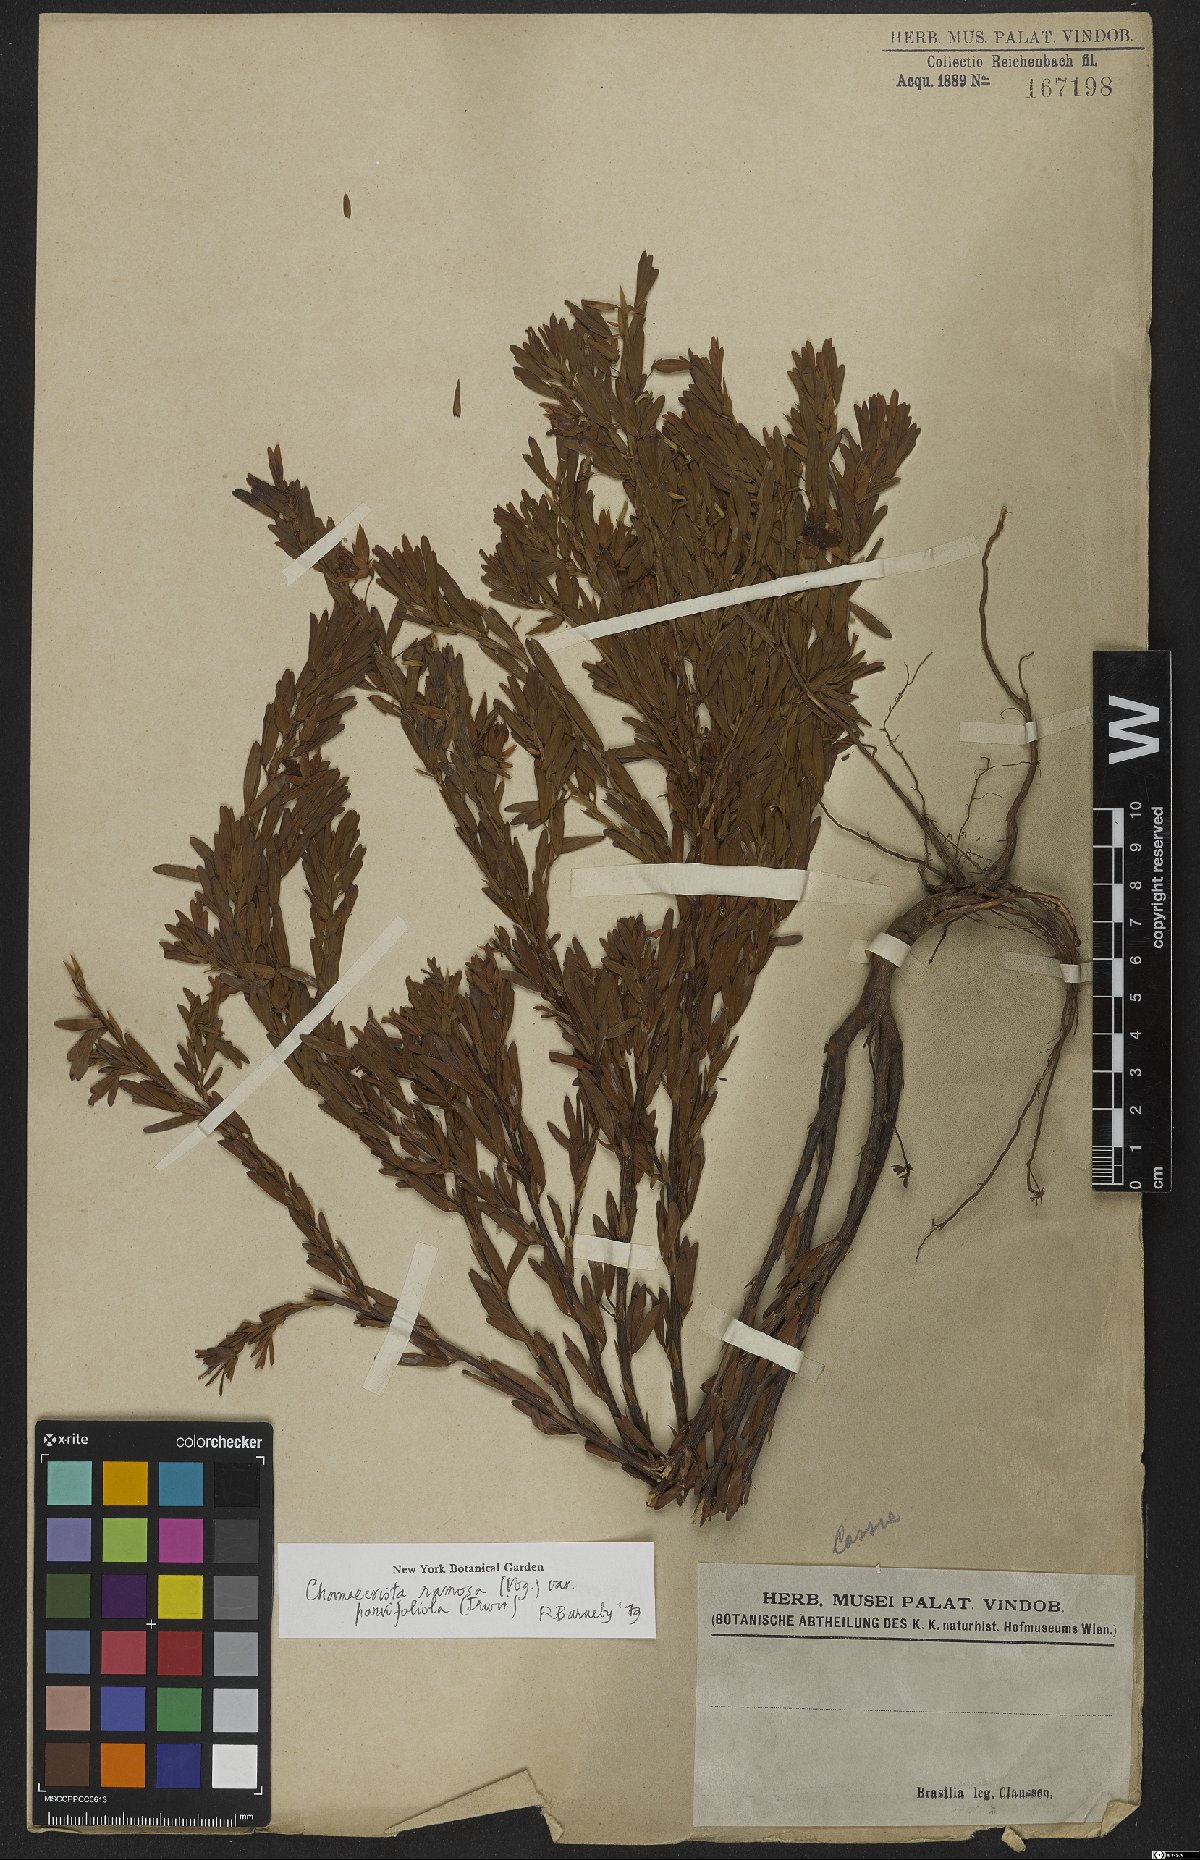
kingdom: Plantae
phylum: Tracheophyta
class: Magnoliopsida
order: Fabales
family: Fabaceae
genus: Chamaecrista
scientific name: Chamaecrista ramosa
